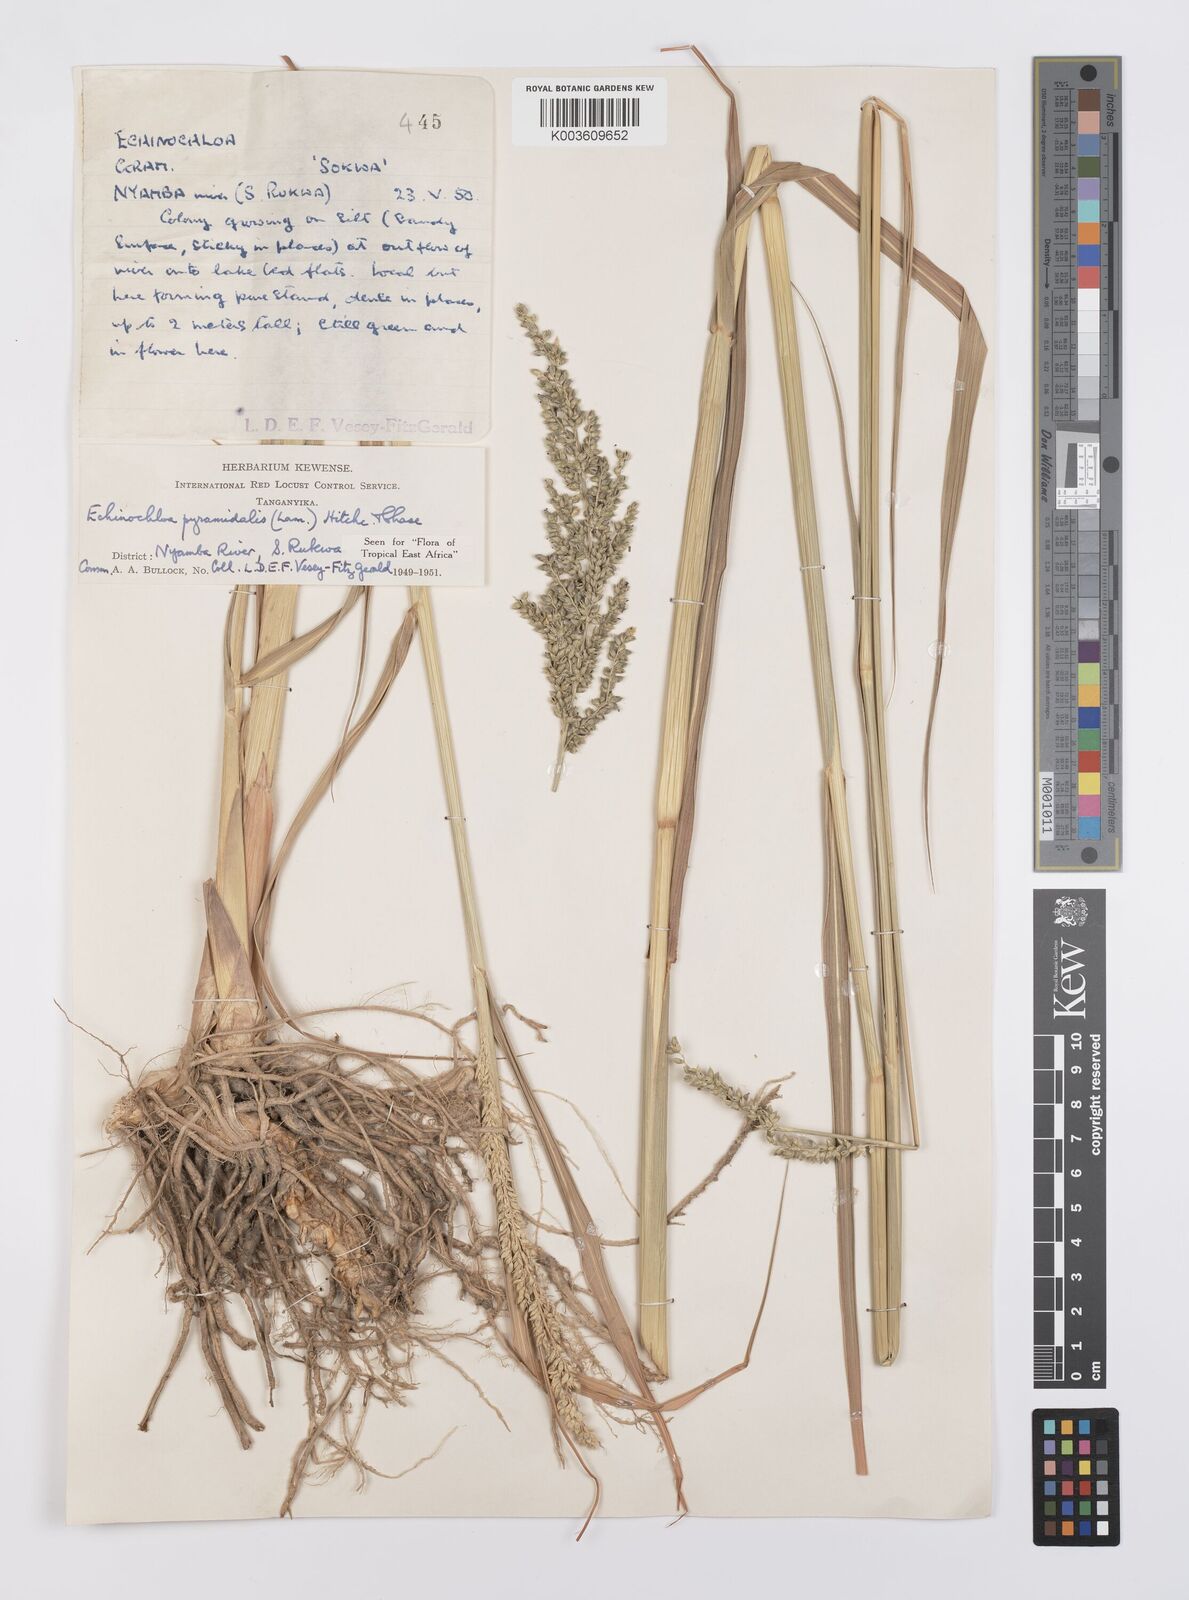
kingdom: Plantae
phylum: Tracheophyta
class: Liliopsida
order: Poales
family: Poaceae
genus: Echinochloa
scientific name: Echinochloa pyramidalis
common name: Antelope grass
